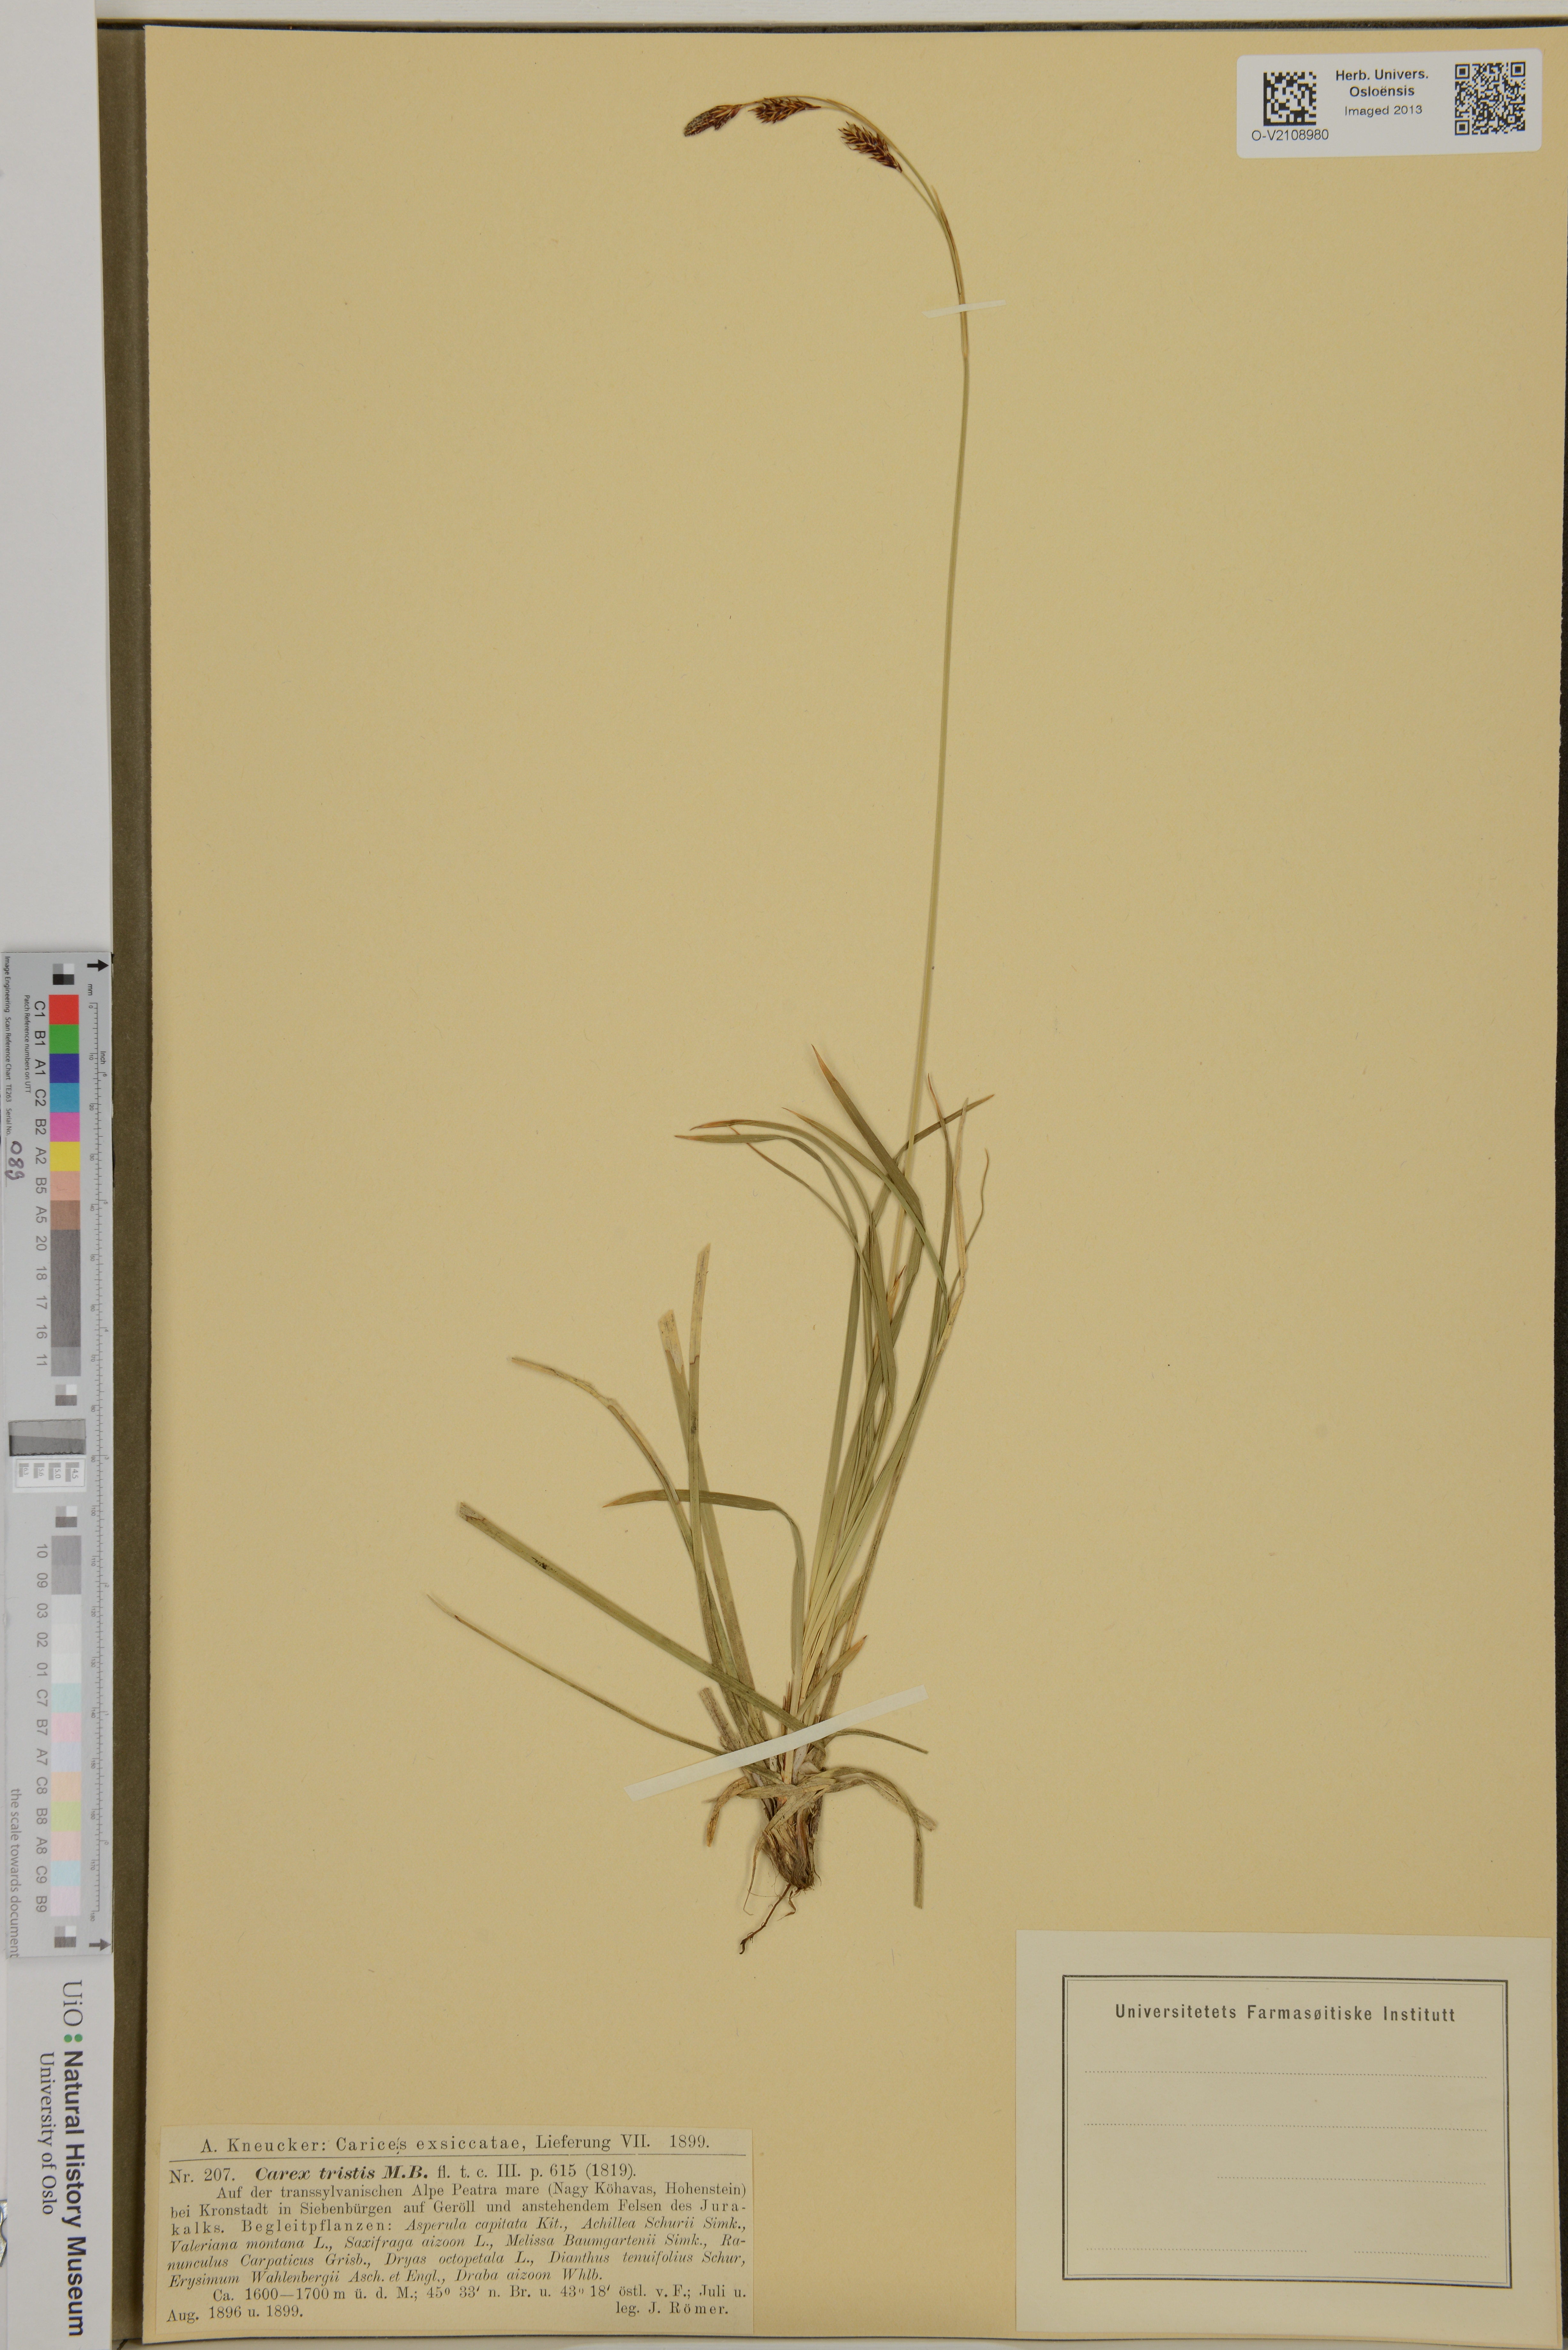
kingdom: Plantae
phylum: Tracheophyta
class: Liliopsida
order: Poales
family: Cyperaceae
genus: Carex
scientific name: Carex tristis
